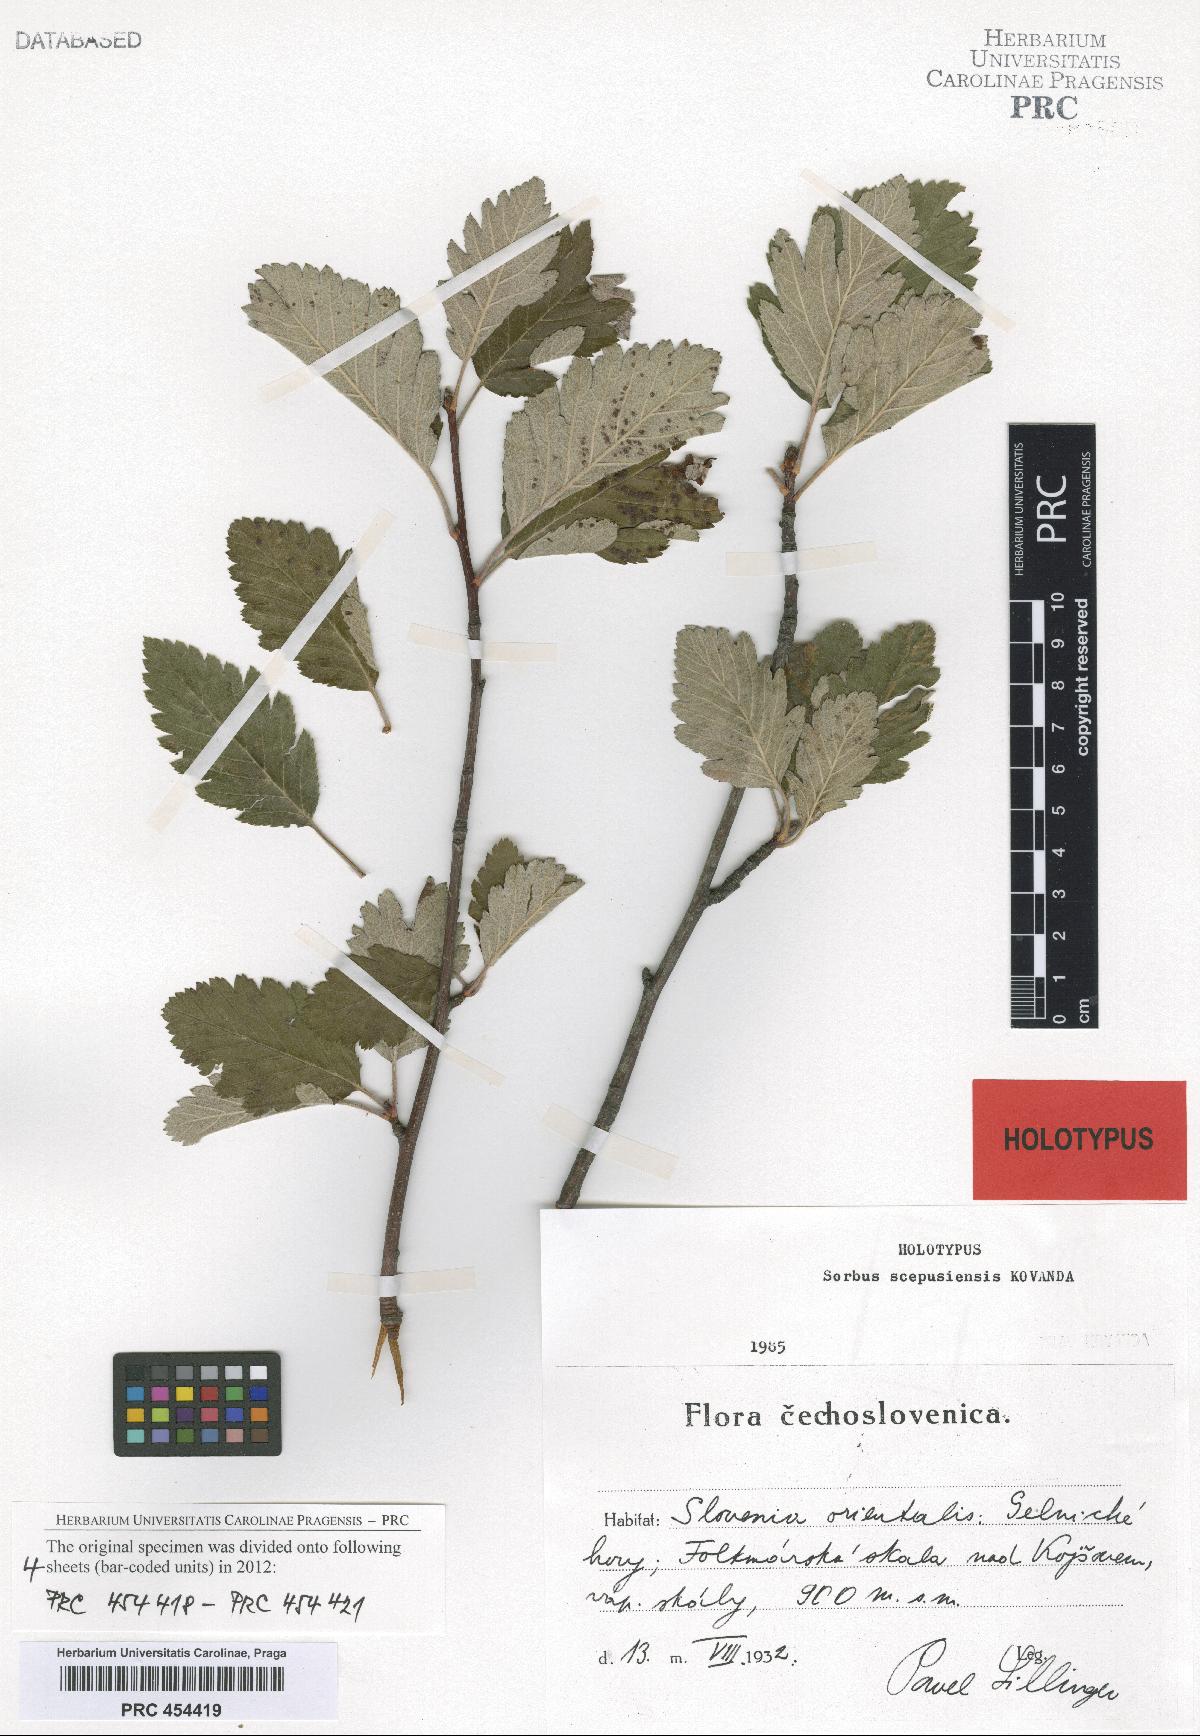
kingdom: Plantae
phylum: Tracheophyta
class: Magnoliopsida
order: Rosales
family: Rosaceae
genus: Hedlundia
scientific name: Hedlundia scepusiensis
